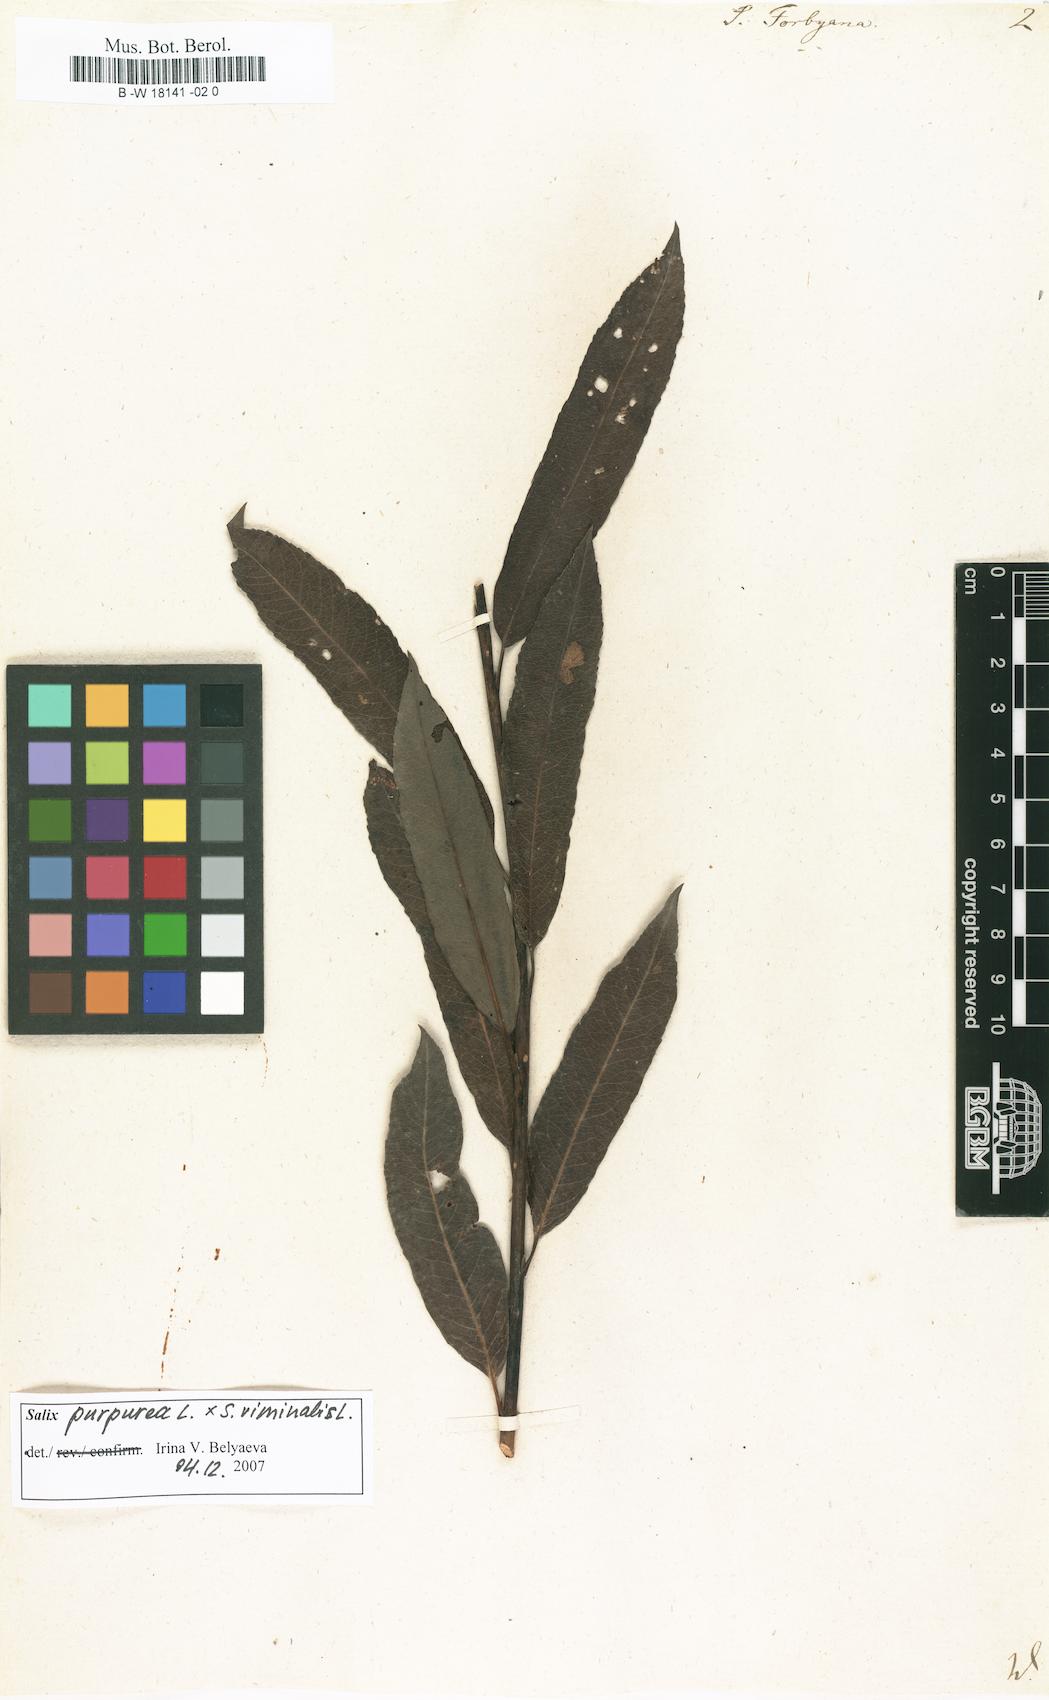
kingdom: Plantae
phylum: Tracheophyta
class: Magnoliopsida
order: Malpighiales
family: Salicaceae
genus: Salix
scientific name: Salix rubra
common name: Green-leaf willow
